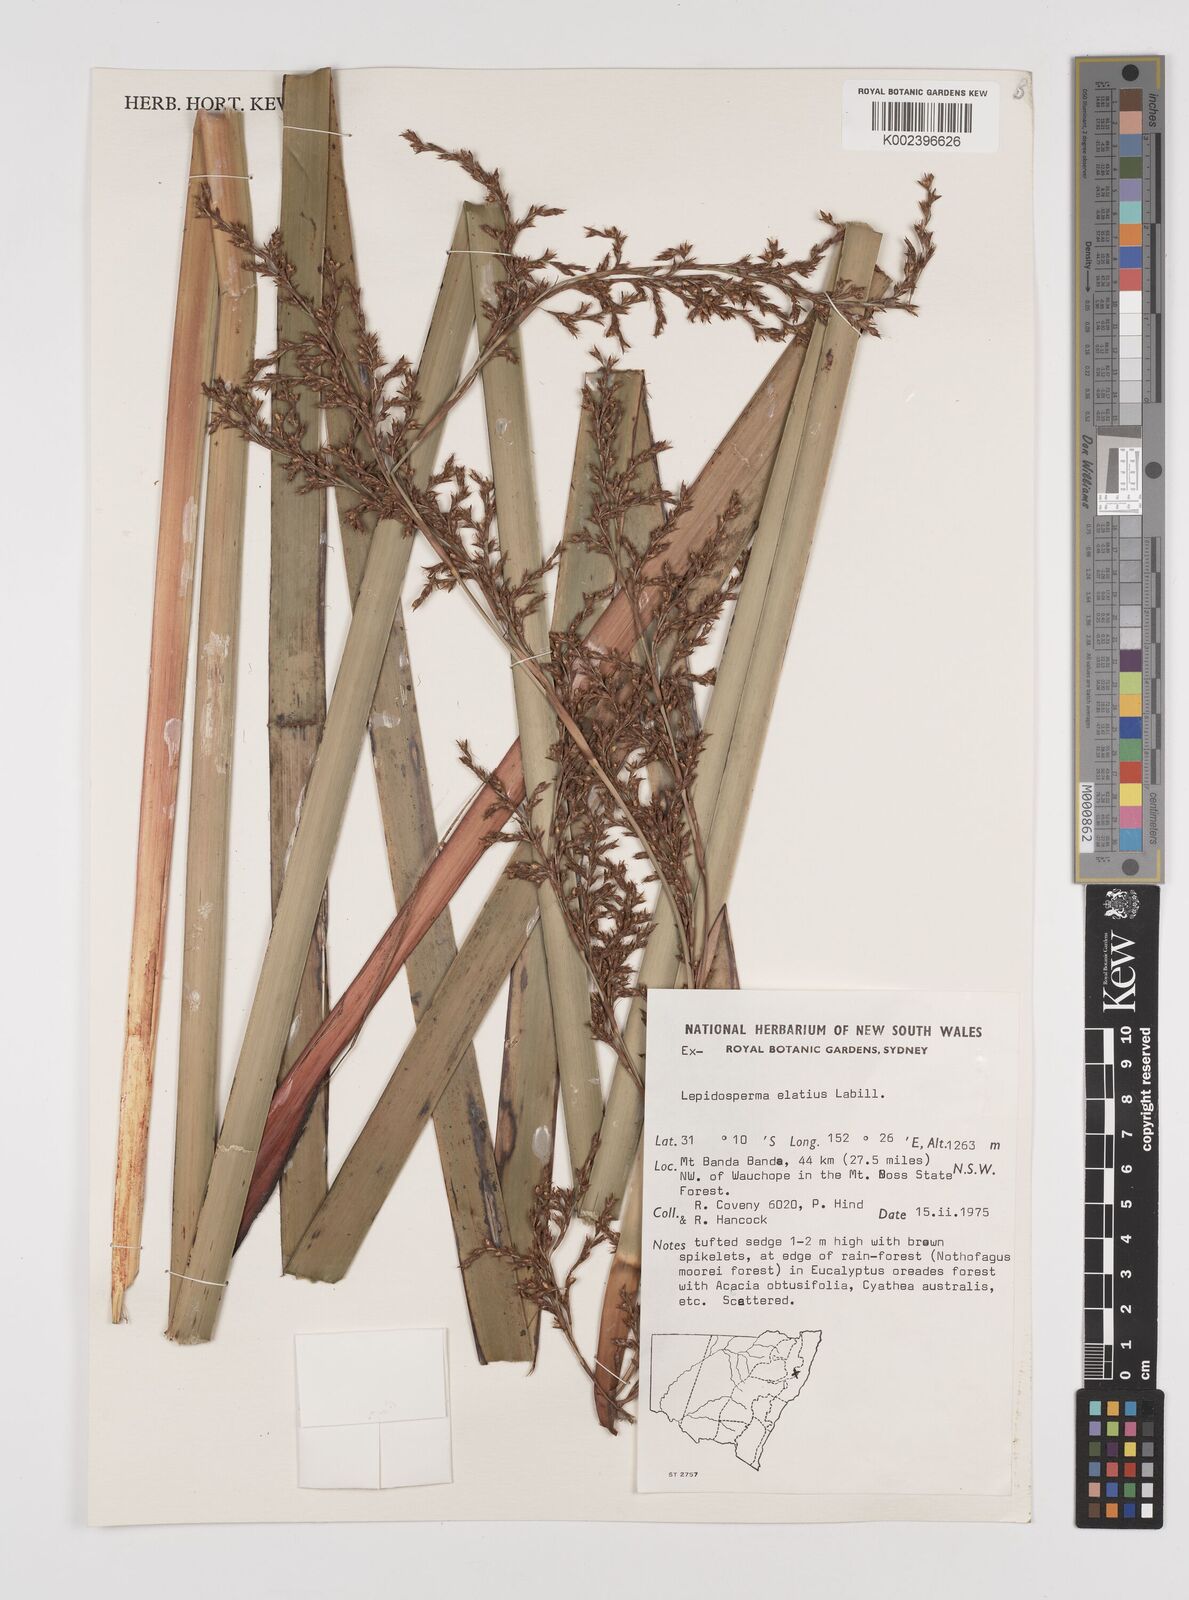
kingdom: Plantae
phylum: Tracheophyta
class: Liliopsida
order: Poales
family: Cyperaceae
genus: Lepidosperma
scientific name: Lepidosperma elatius
